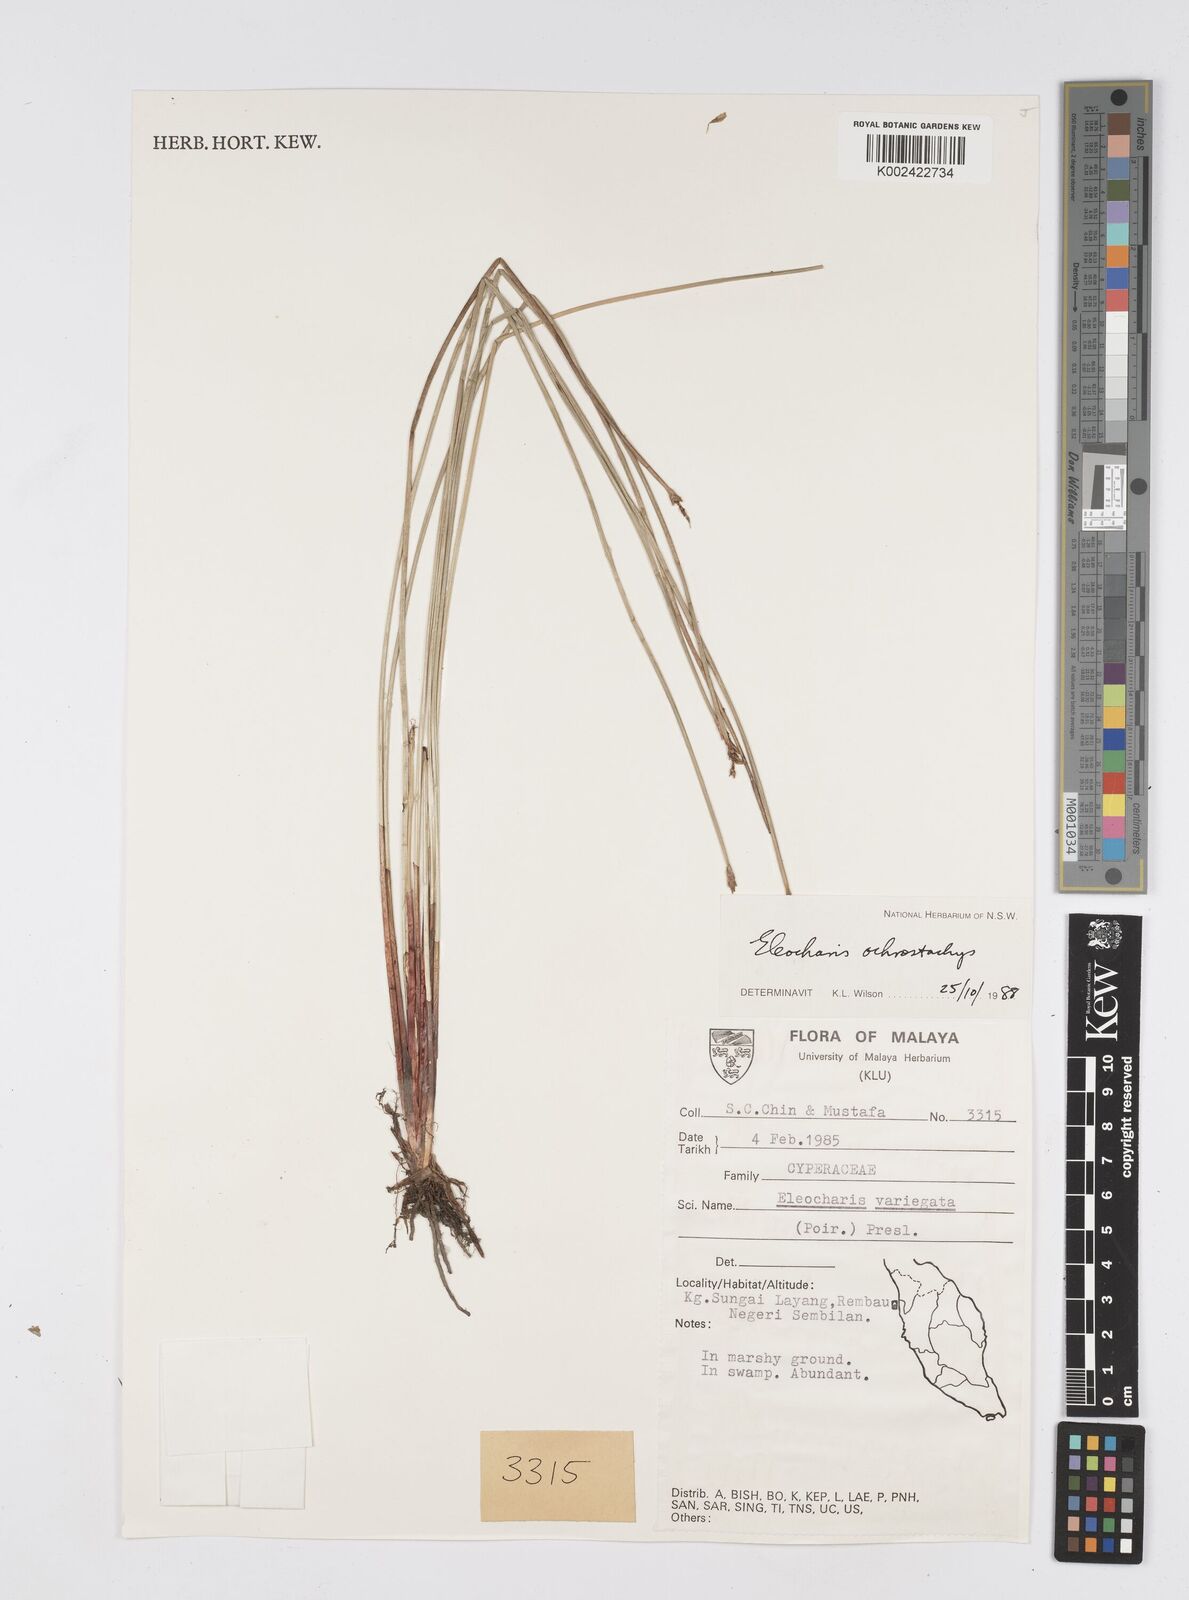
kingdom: Plantae
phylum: Tracheophyta
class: Liliopsida
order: Poales
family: Cyperaceae
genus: Eleocharis
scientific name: Eleocharis variegata
